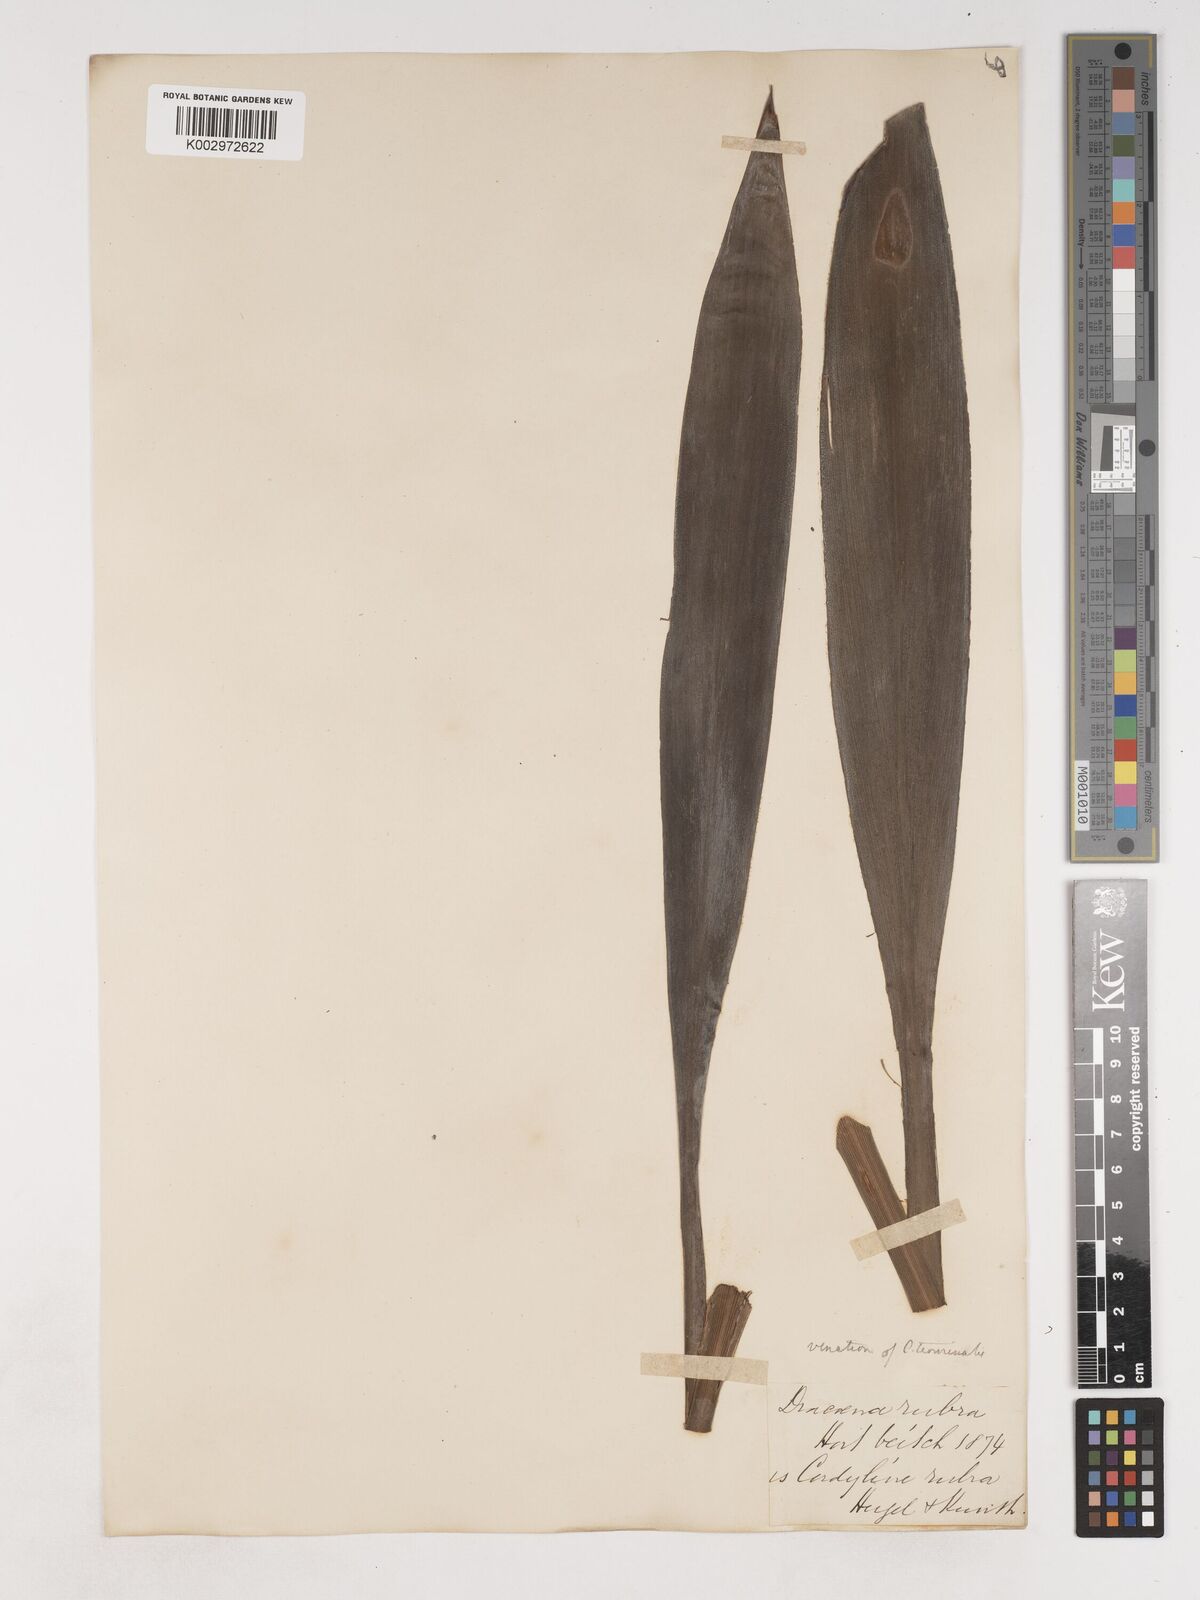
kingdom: Plantae
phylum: Tracheophyta
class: Liliopsida
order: Asparagales
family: Asparagaceae
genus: Cordyline
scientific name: Cordyline rubra
